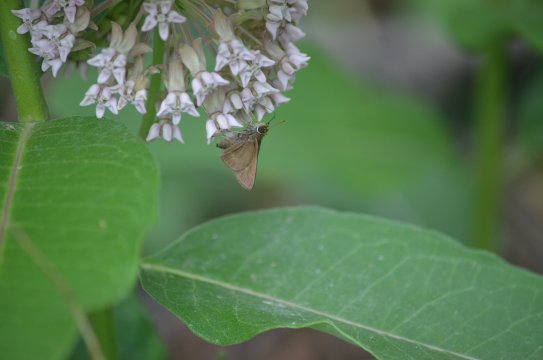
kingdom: Animalia
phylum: Arthropoda
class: Insecta
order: Lepidoptera
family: Hesperiidae
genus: Euphyes
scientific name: Euphyes vestris
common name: Dun Skipper
